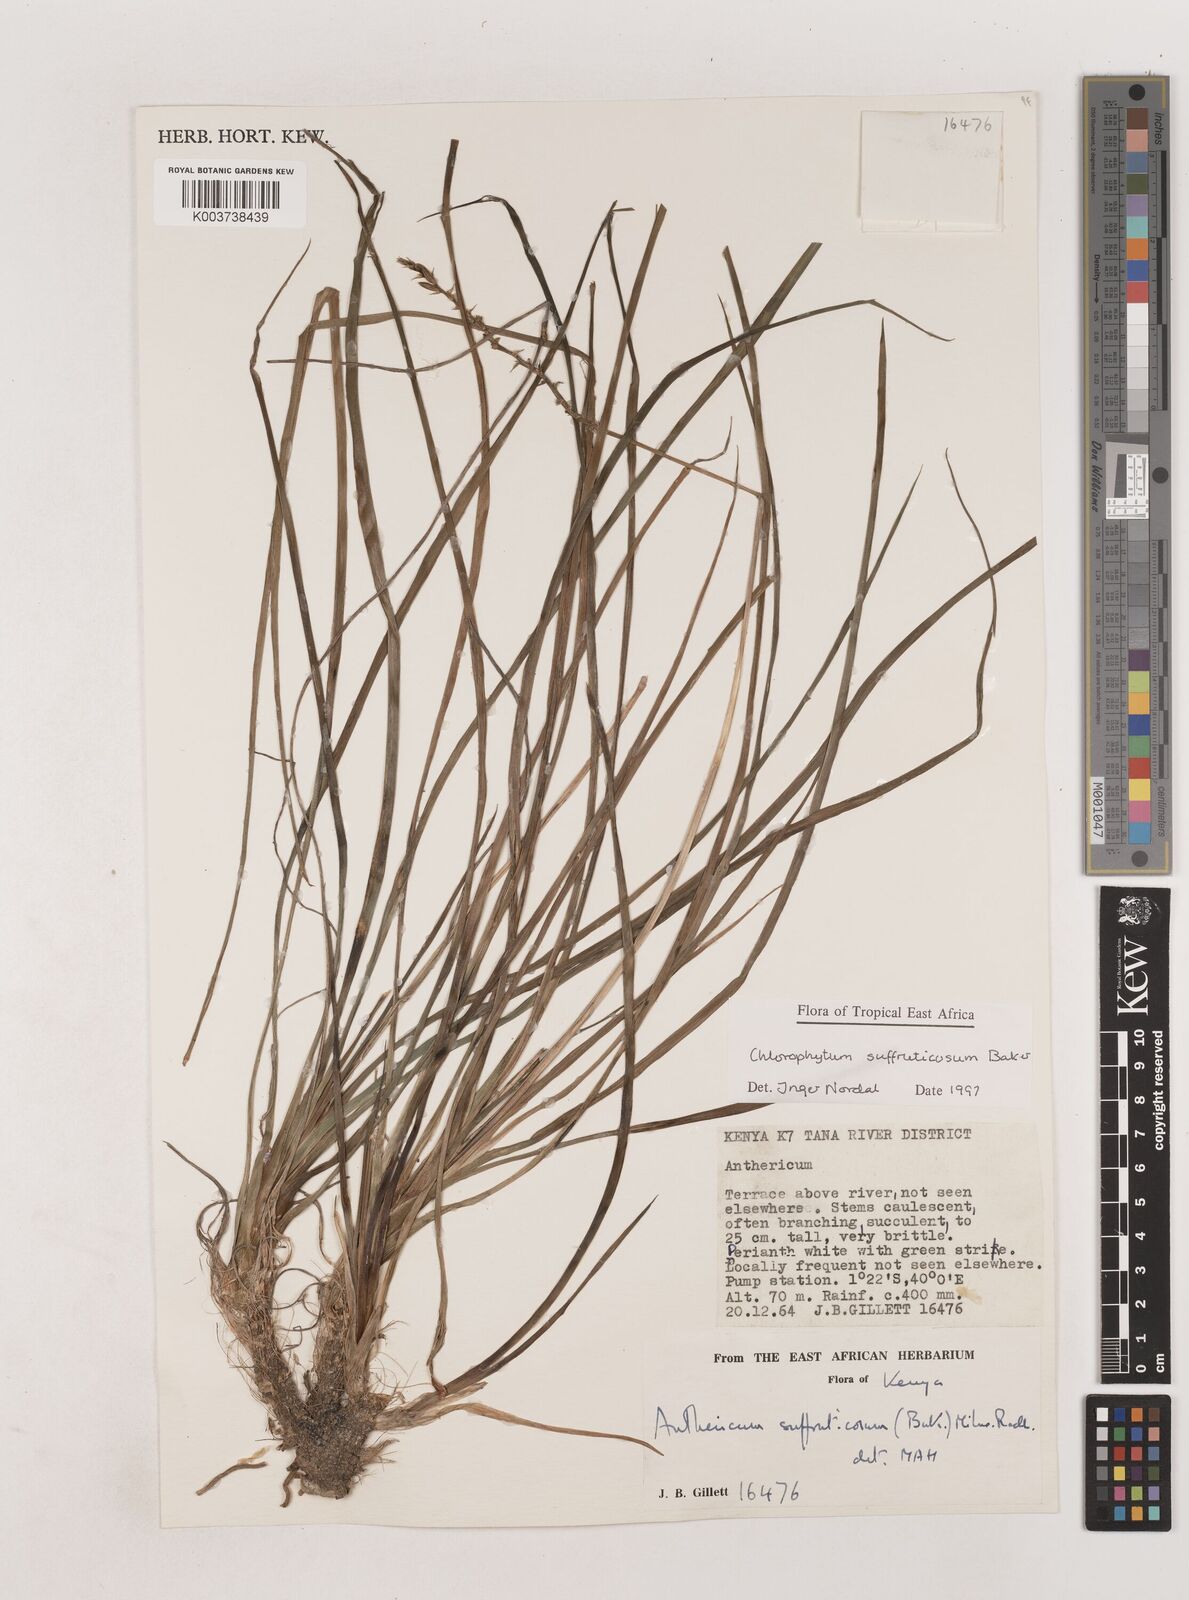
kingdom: Plantae
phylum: Tracheophyta
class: Liliopsida
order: Asparagales
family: Asparagaceae
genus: Chlorophytum
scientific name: Chlorophytum suffruticosum
